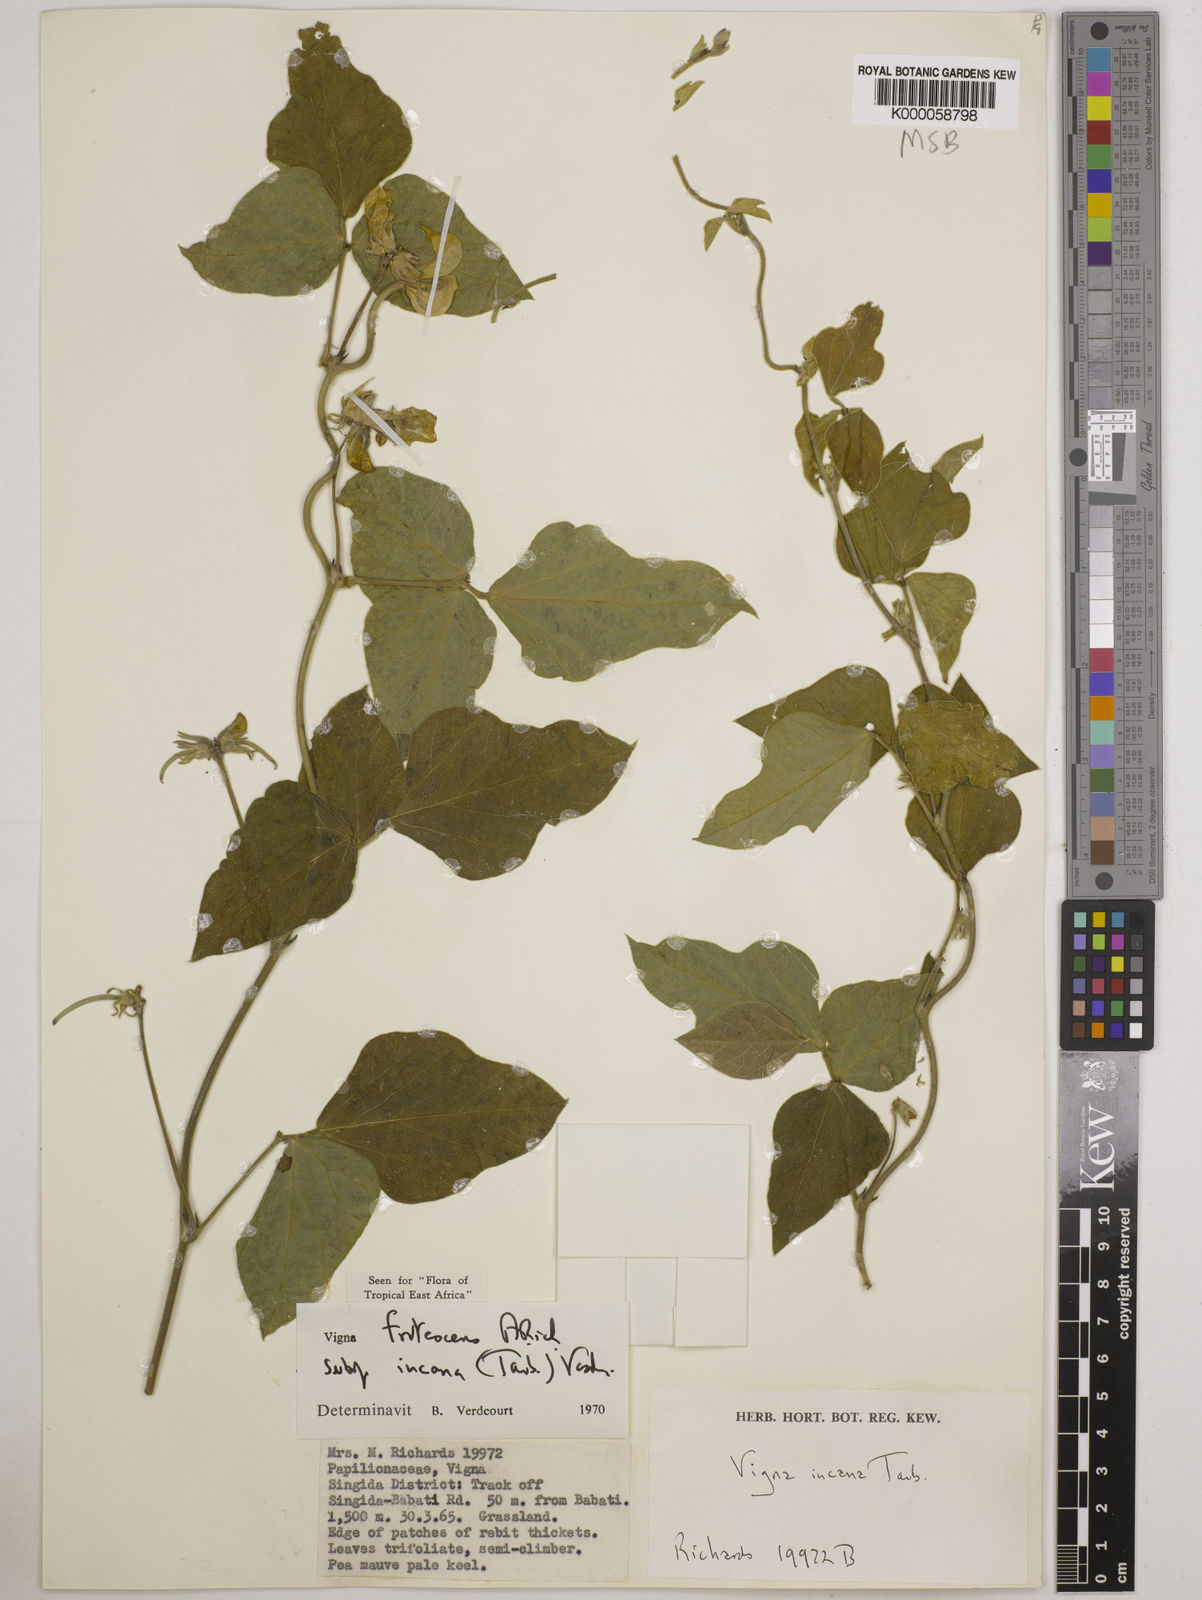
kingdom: Plantae
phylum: Tracheophyta
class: Magnoliopsida
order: Fabales
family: Fabaceae
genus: Vigna
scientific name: Vigna
